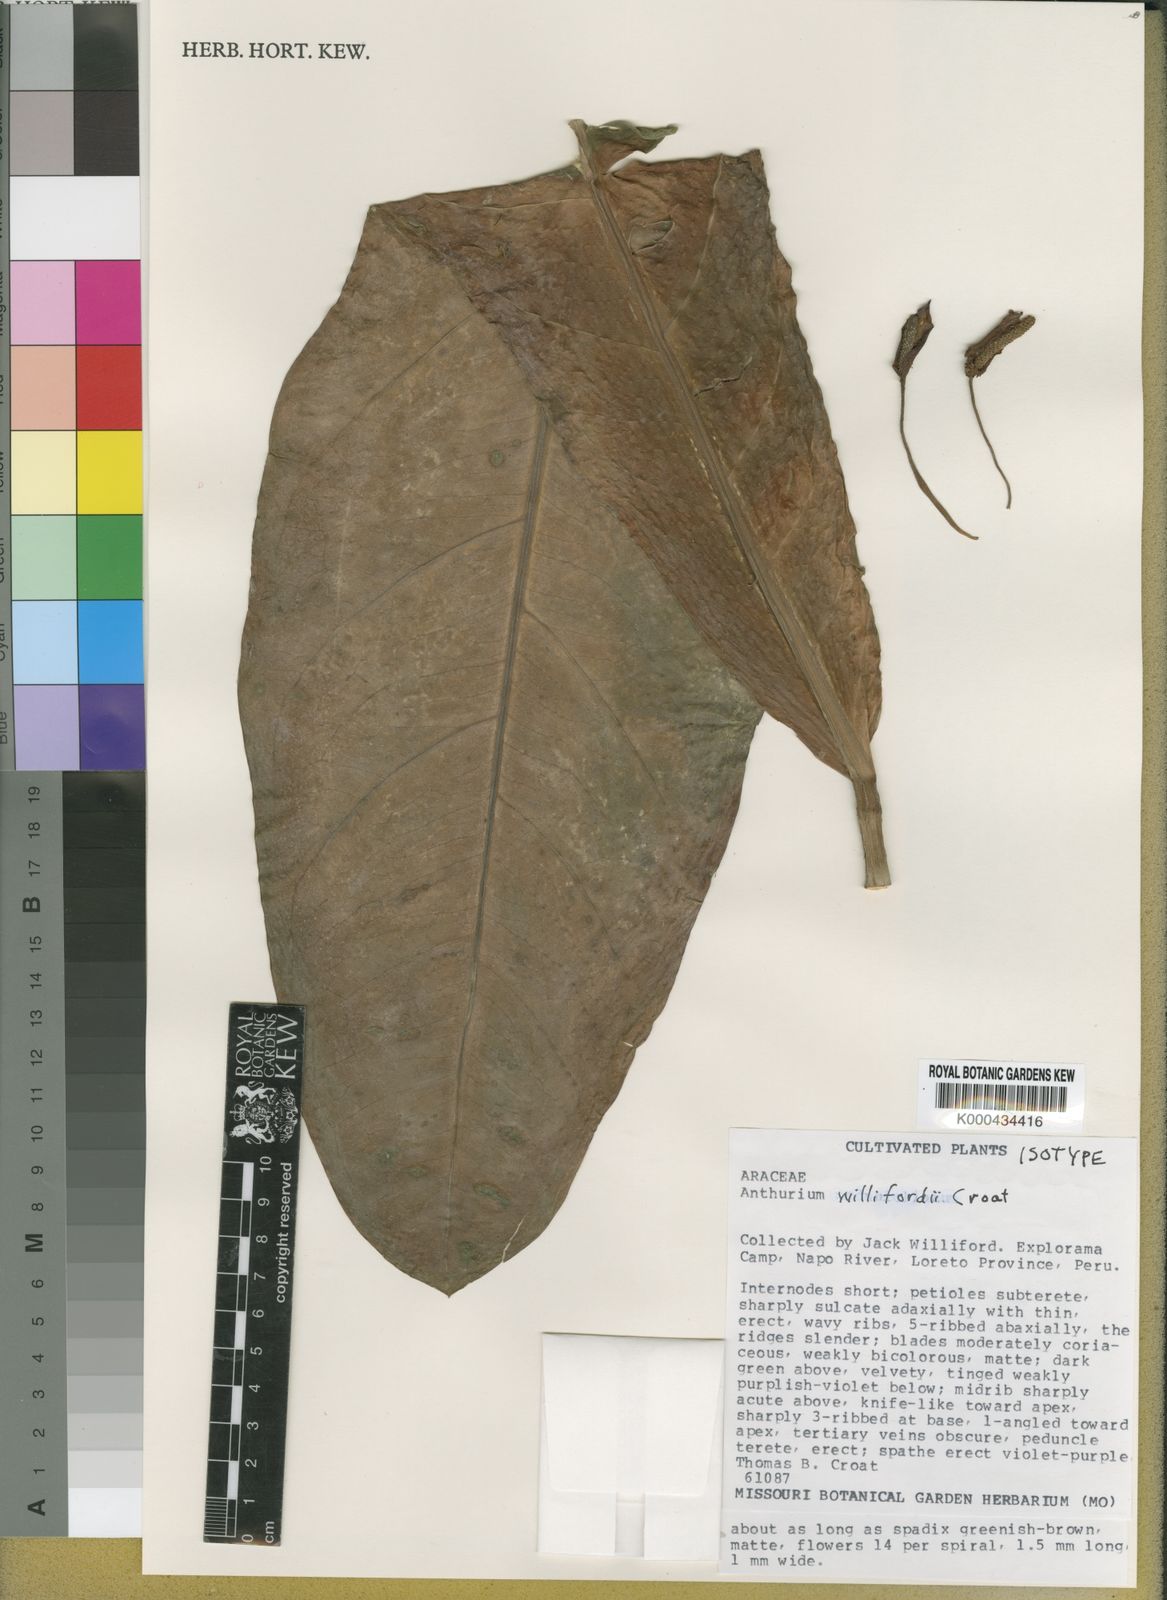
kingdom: Plantae
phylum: Tracheophyta
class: Liliopsida
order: Alismatales
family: Araceae
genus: Anthurium
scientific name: Anthurium willifordii
